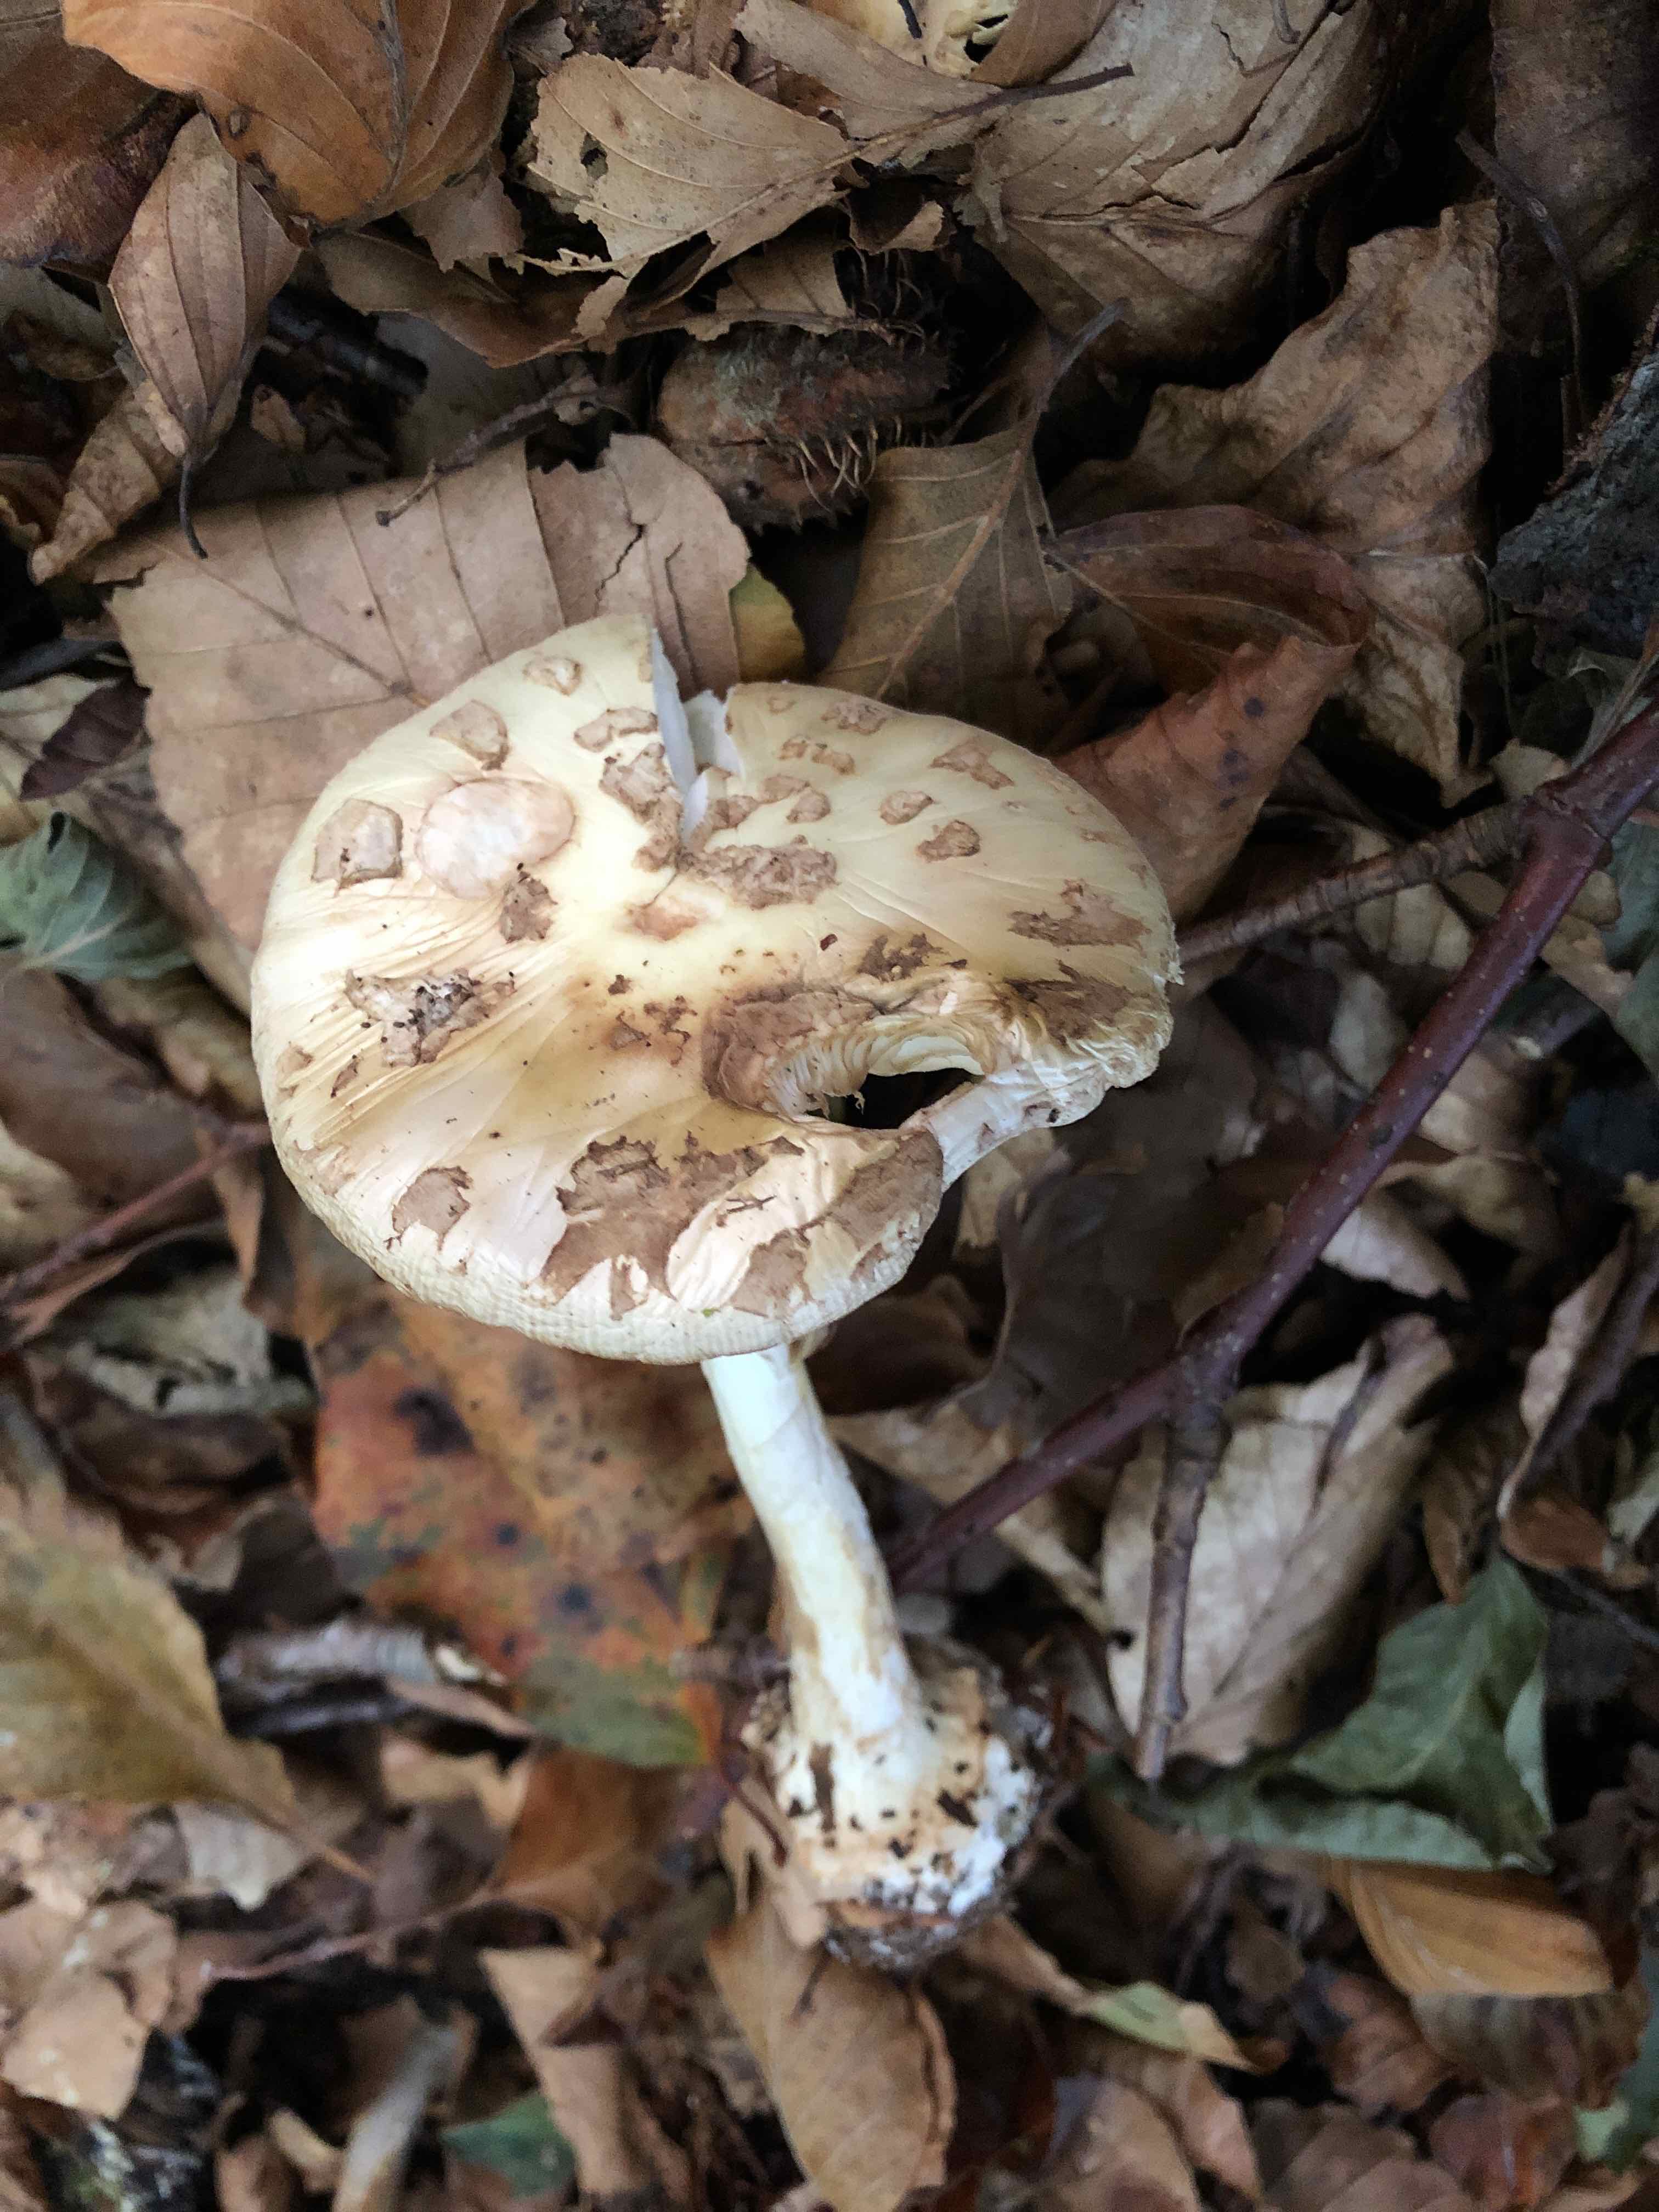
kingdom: Fungi
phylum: Basidiomycota
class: Agaricomycetes
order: Agaricales
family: Amanitaceae
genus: Amanita
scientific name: Amanita citrina
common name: kugleknoldet fluesvamp
